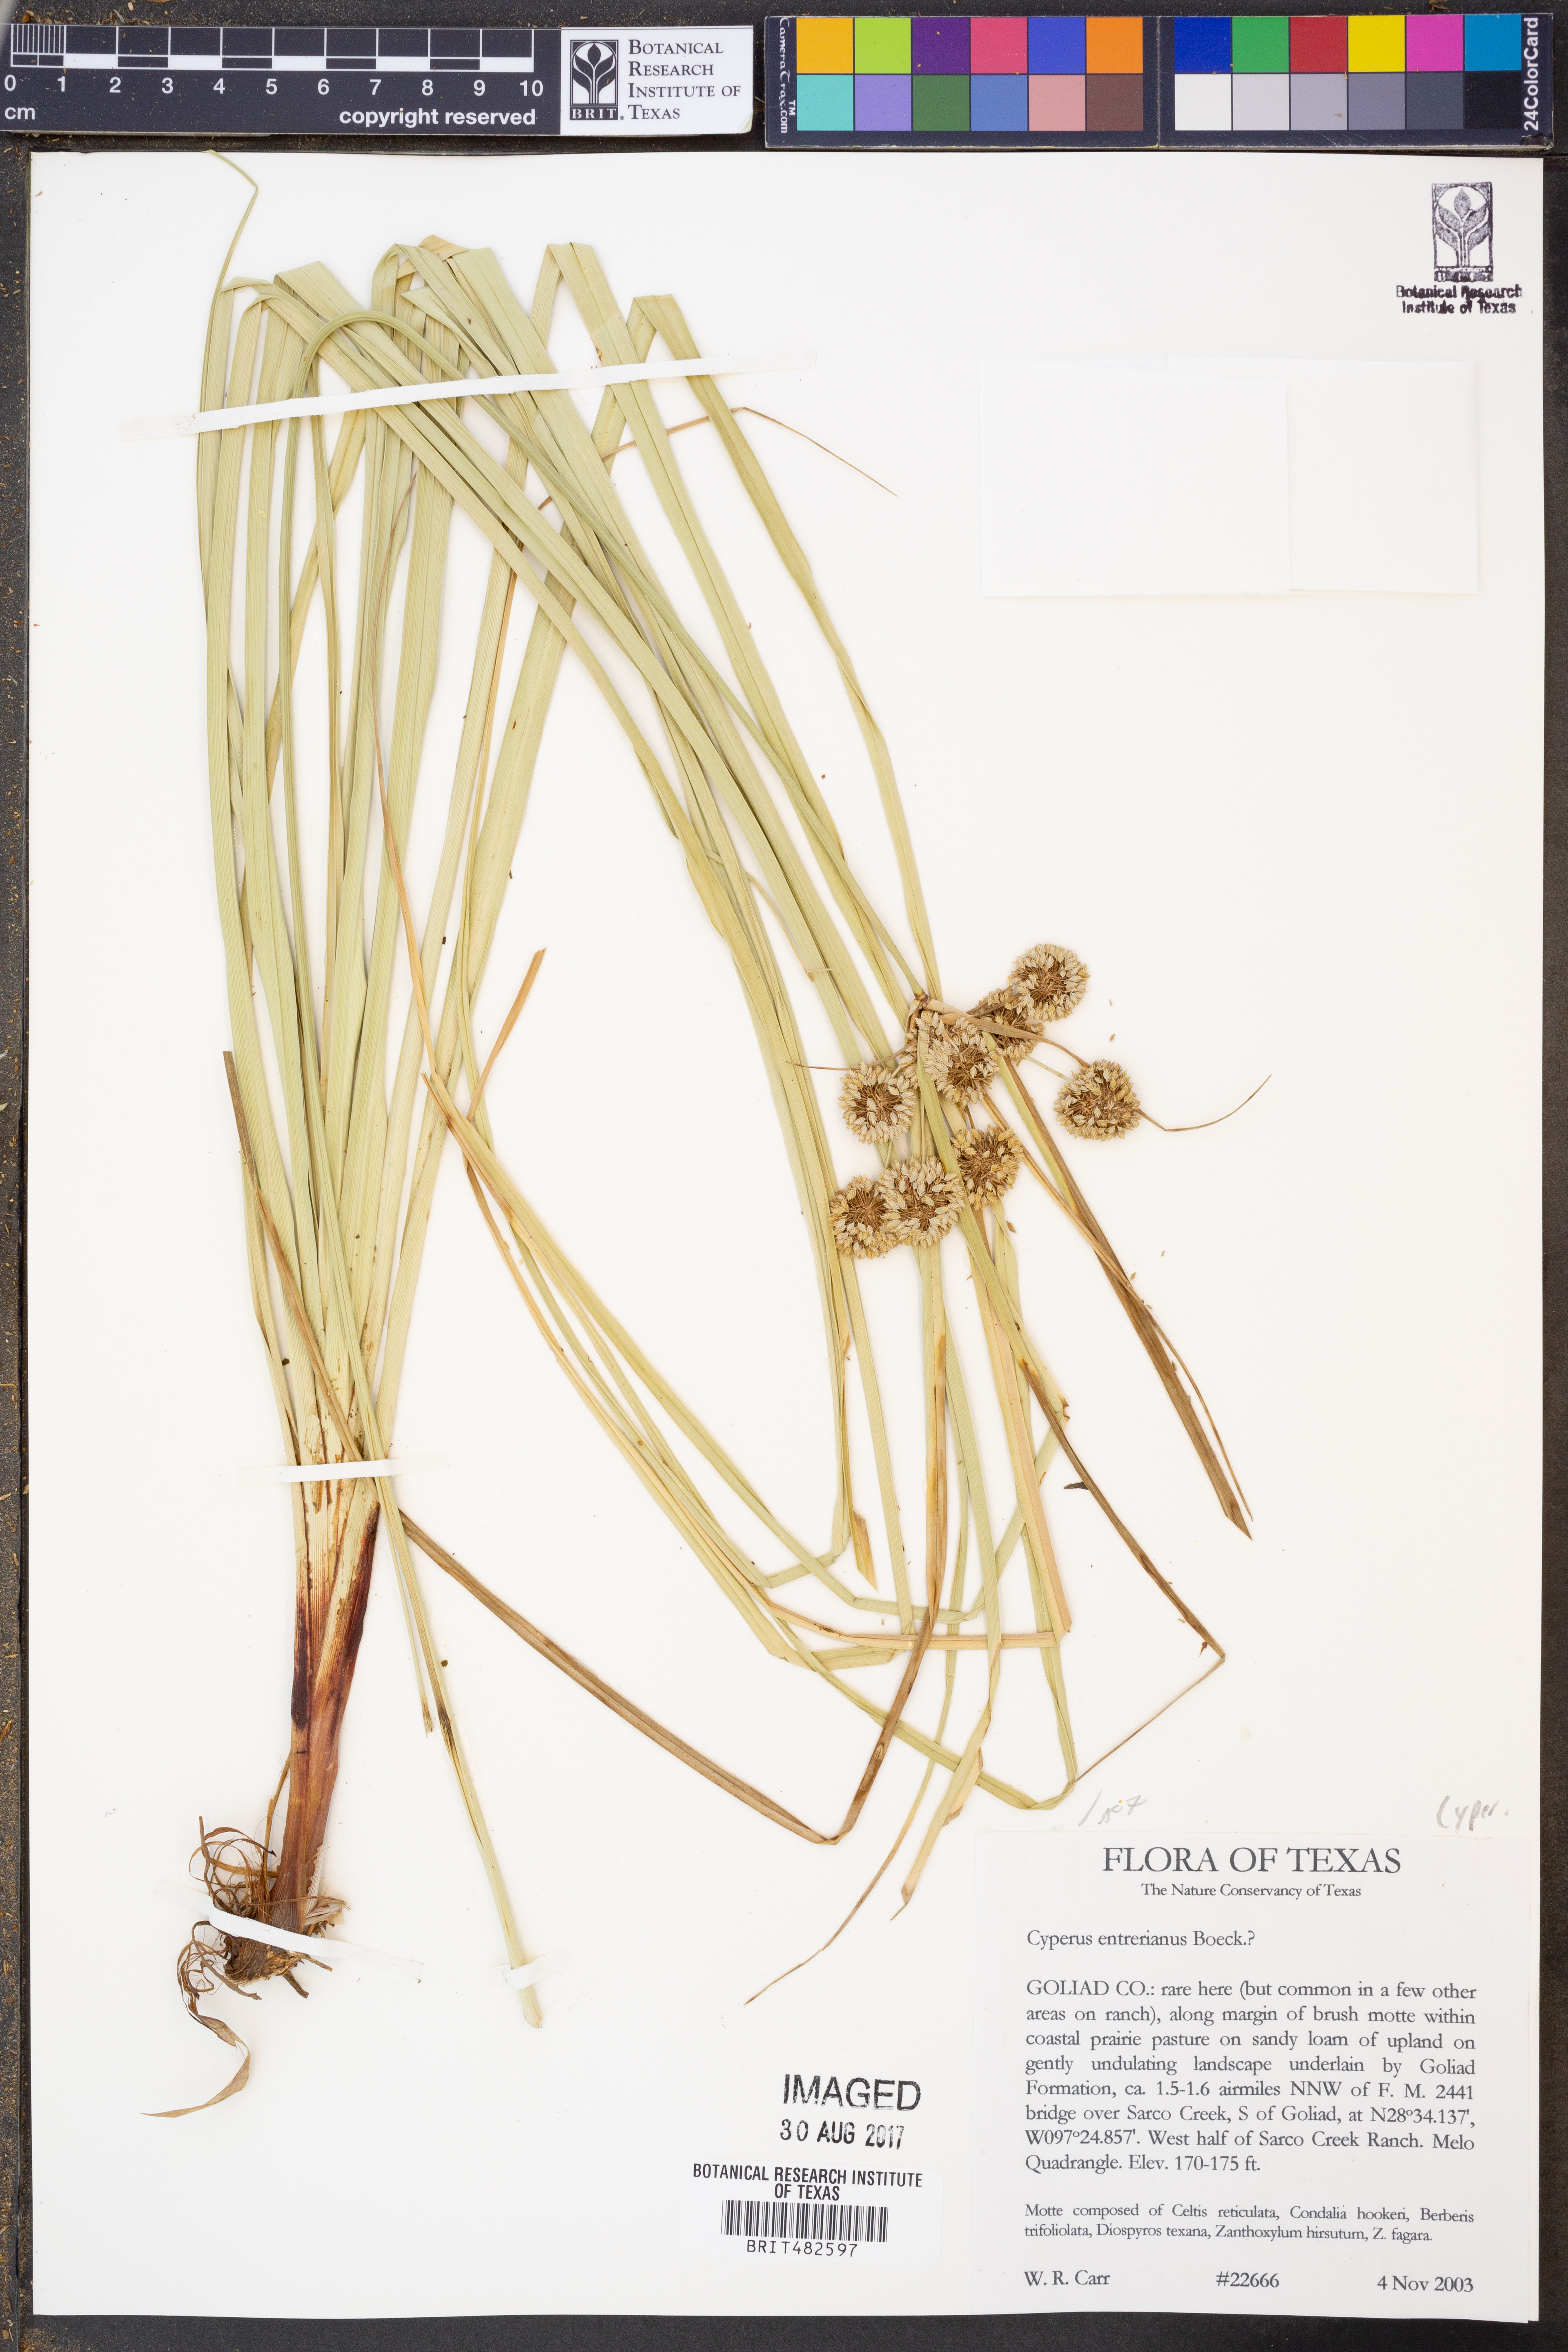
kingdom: Plantae
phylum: Tracheophyta
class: Liliopsida
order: Poales
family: Cyperaceae
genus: Cyperus
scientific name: Cyperus entrerianus
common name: Woodrush flatsedge
